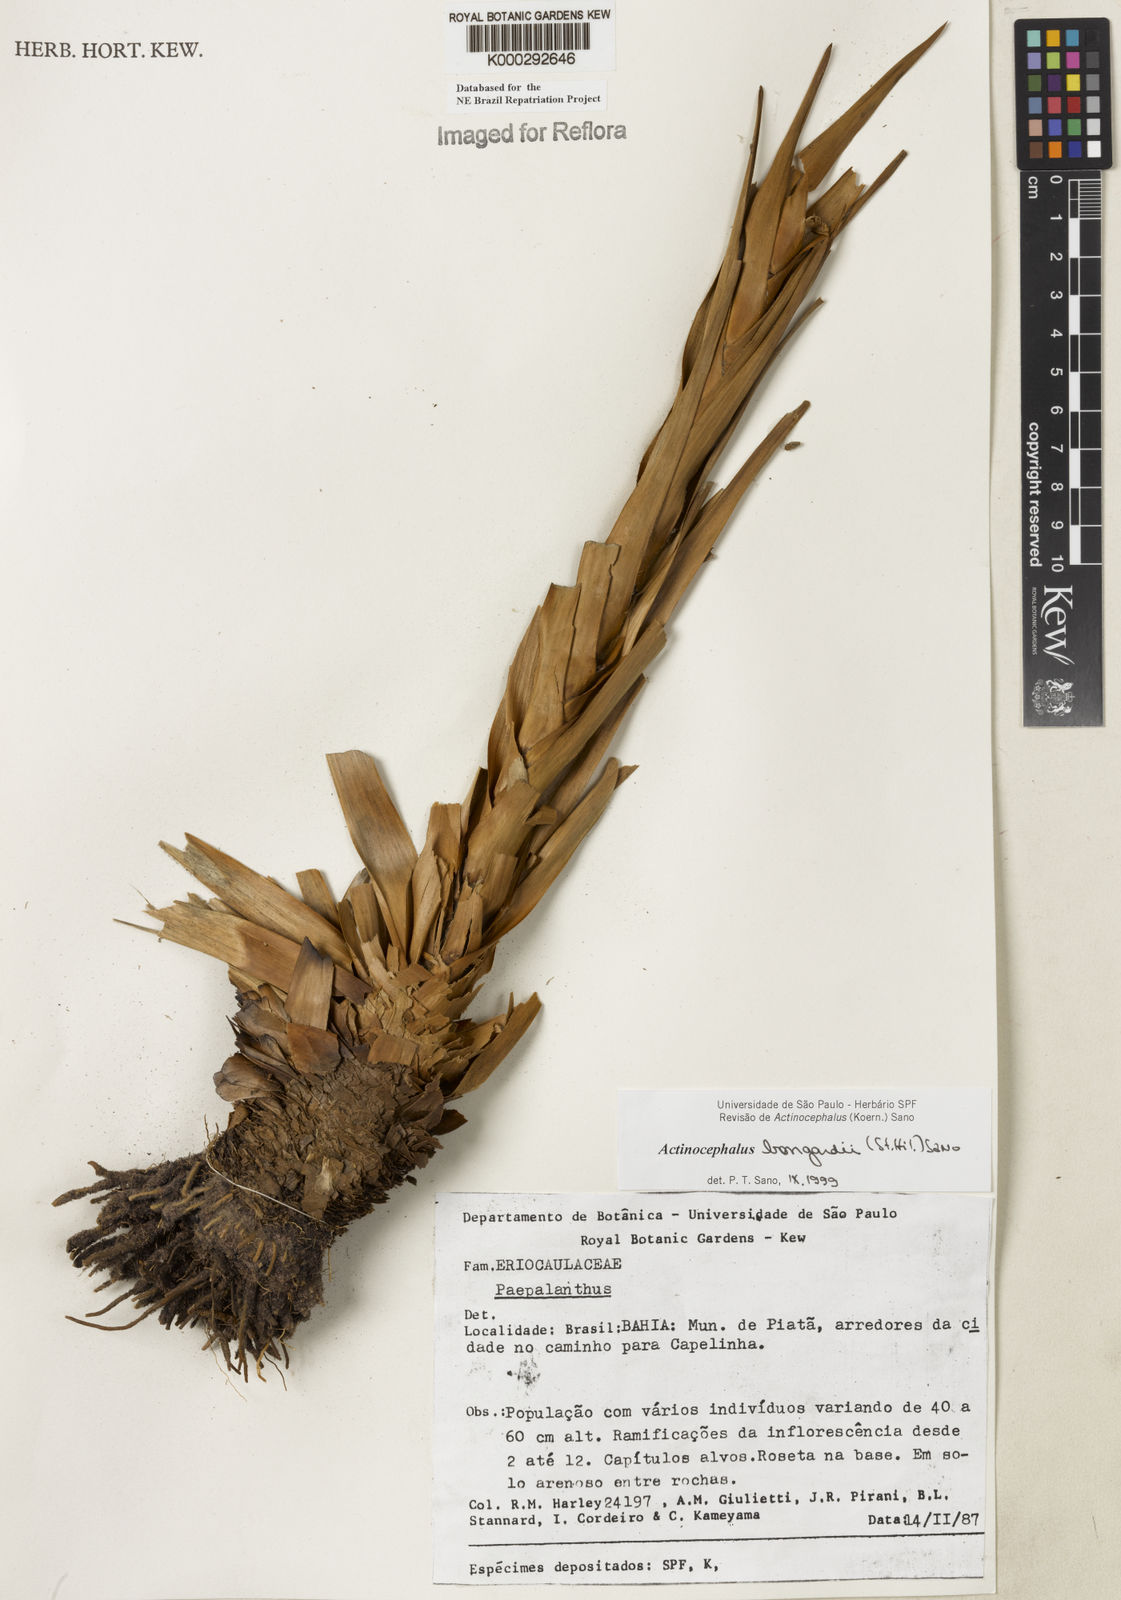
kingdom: Plantae
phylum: Tracheophyta
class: Liliopsida
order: Poales
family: Eriocaulaceae
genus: Paepalanthus
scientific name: Paepalanthus hilairei
